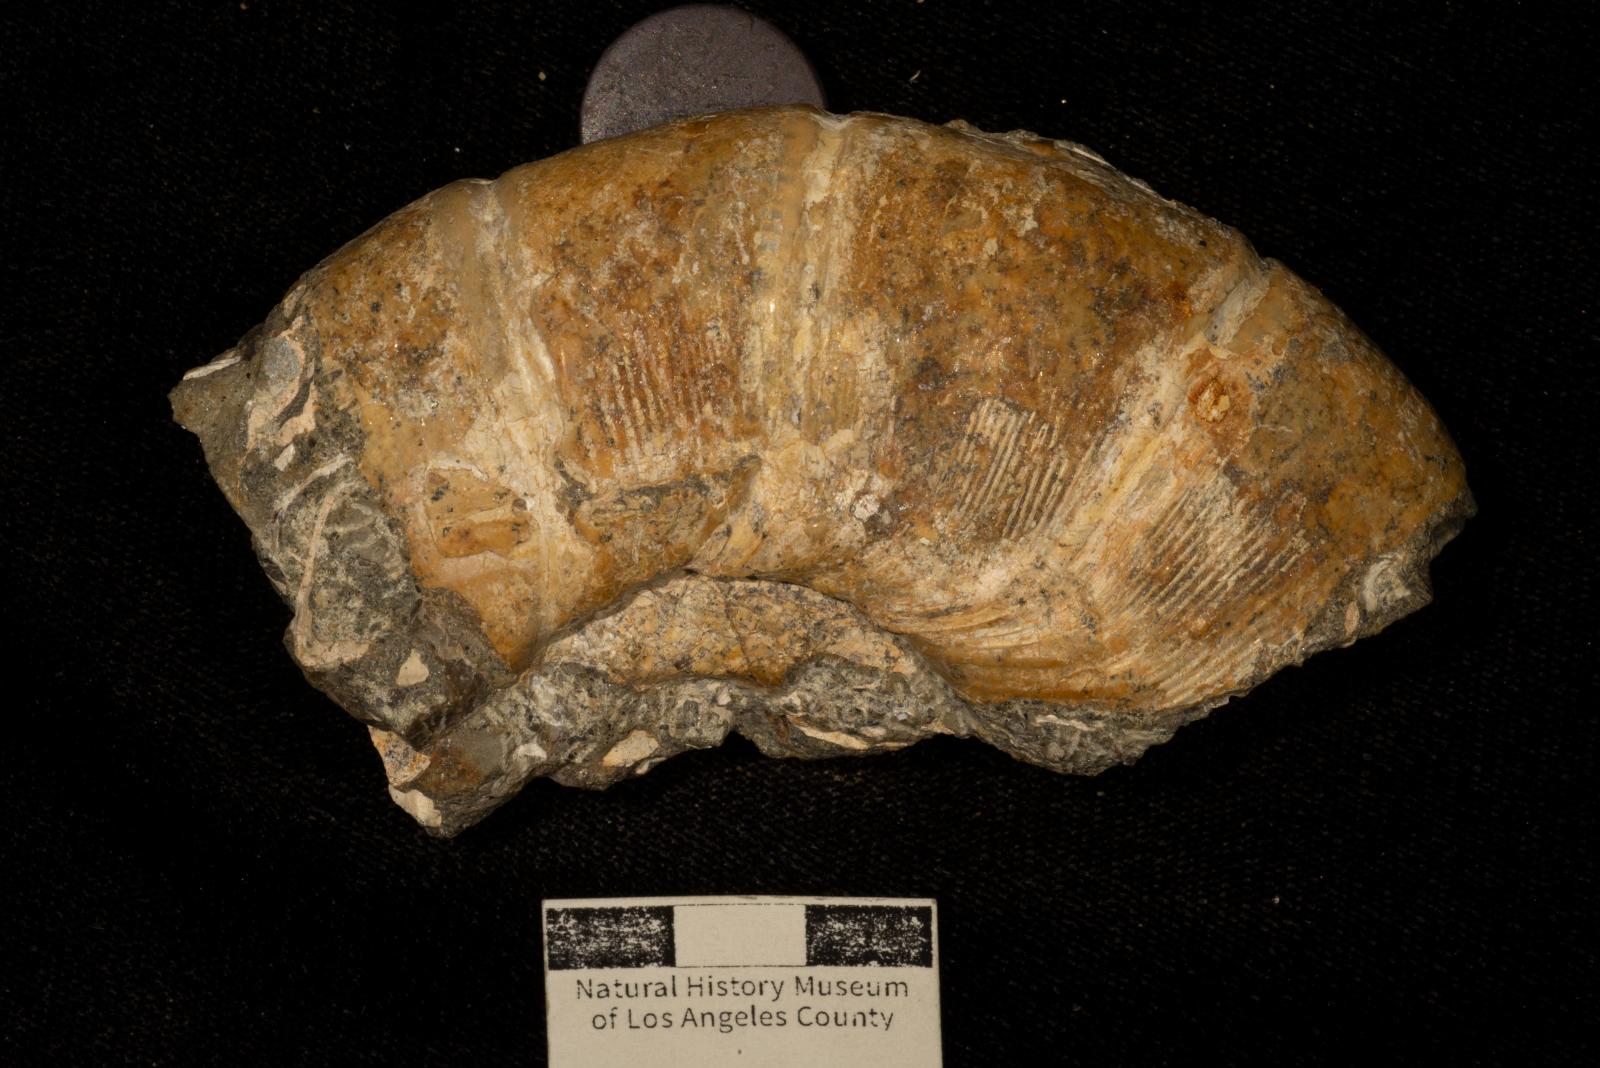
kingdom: Animalia
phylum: Mollusca
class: Cephalopoda
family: Gaudryceratidae
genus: Gaudryceras
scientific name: Gaudryceras
